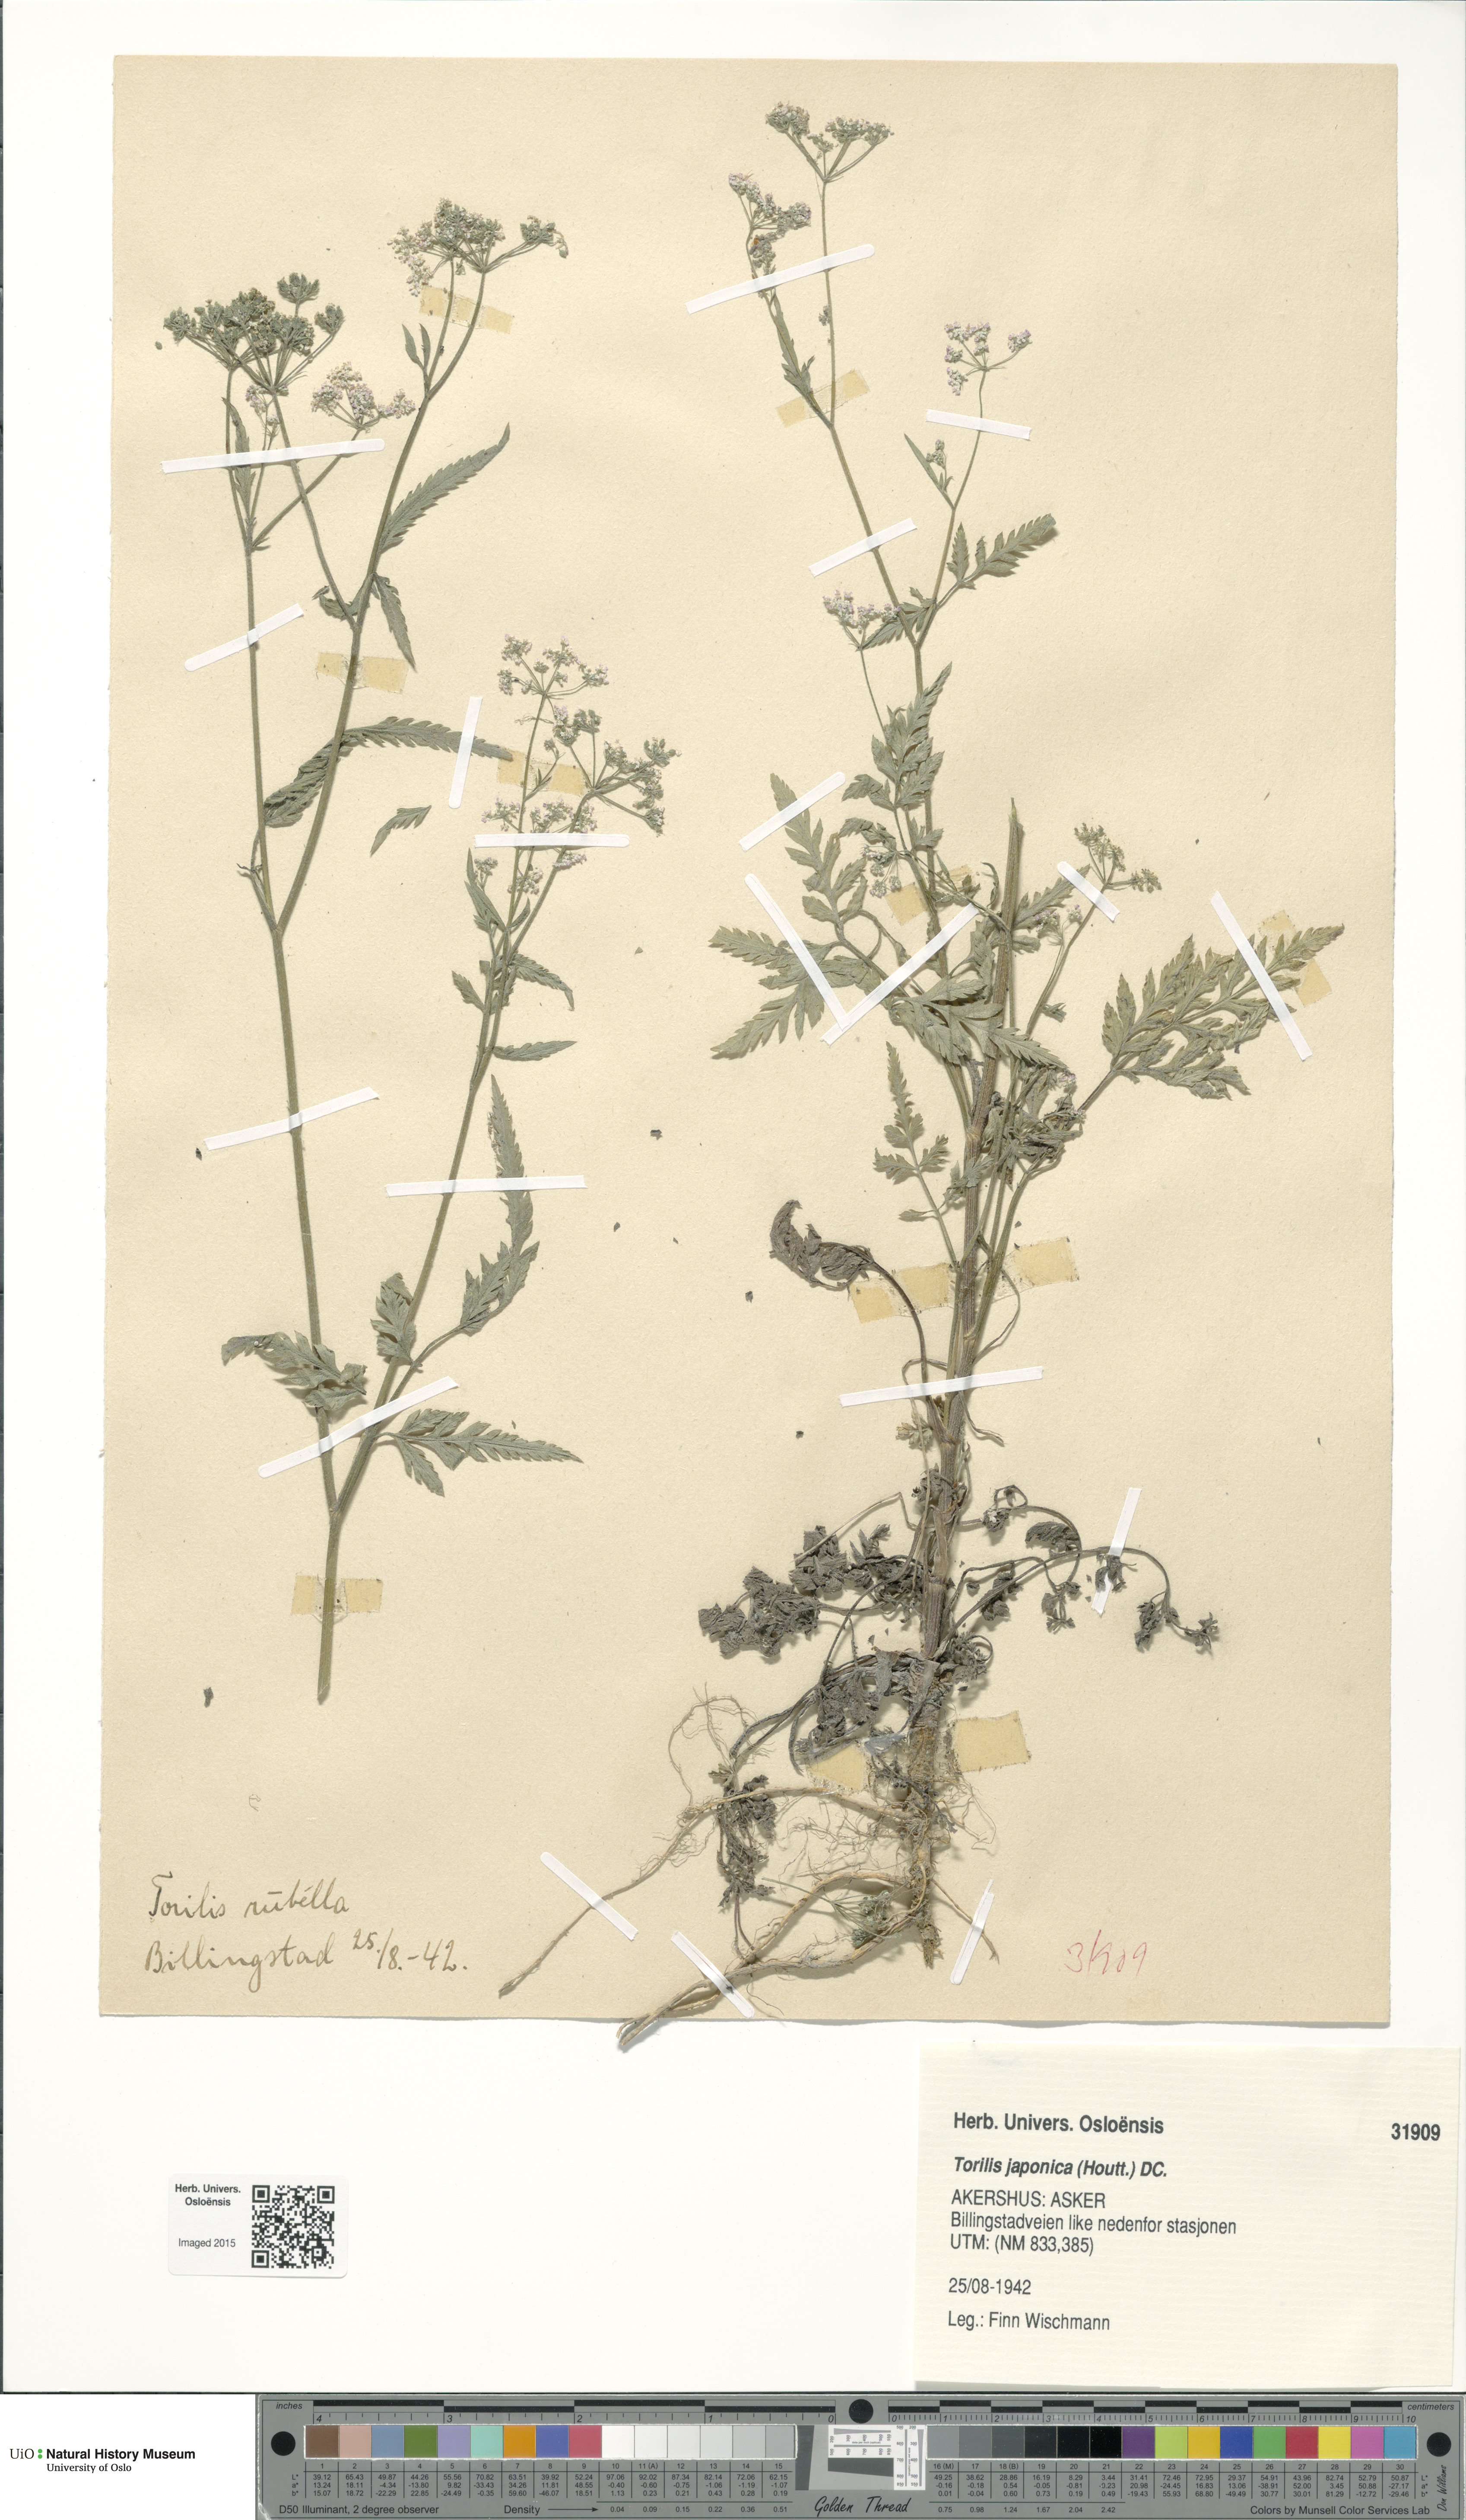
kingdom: Plantae
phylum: Tracheophyta
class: Magnoliopsida
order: Apiales
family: Apiaceae
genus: Torilis
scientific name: Torilis japonica
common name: Upright hedge-parsley
